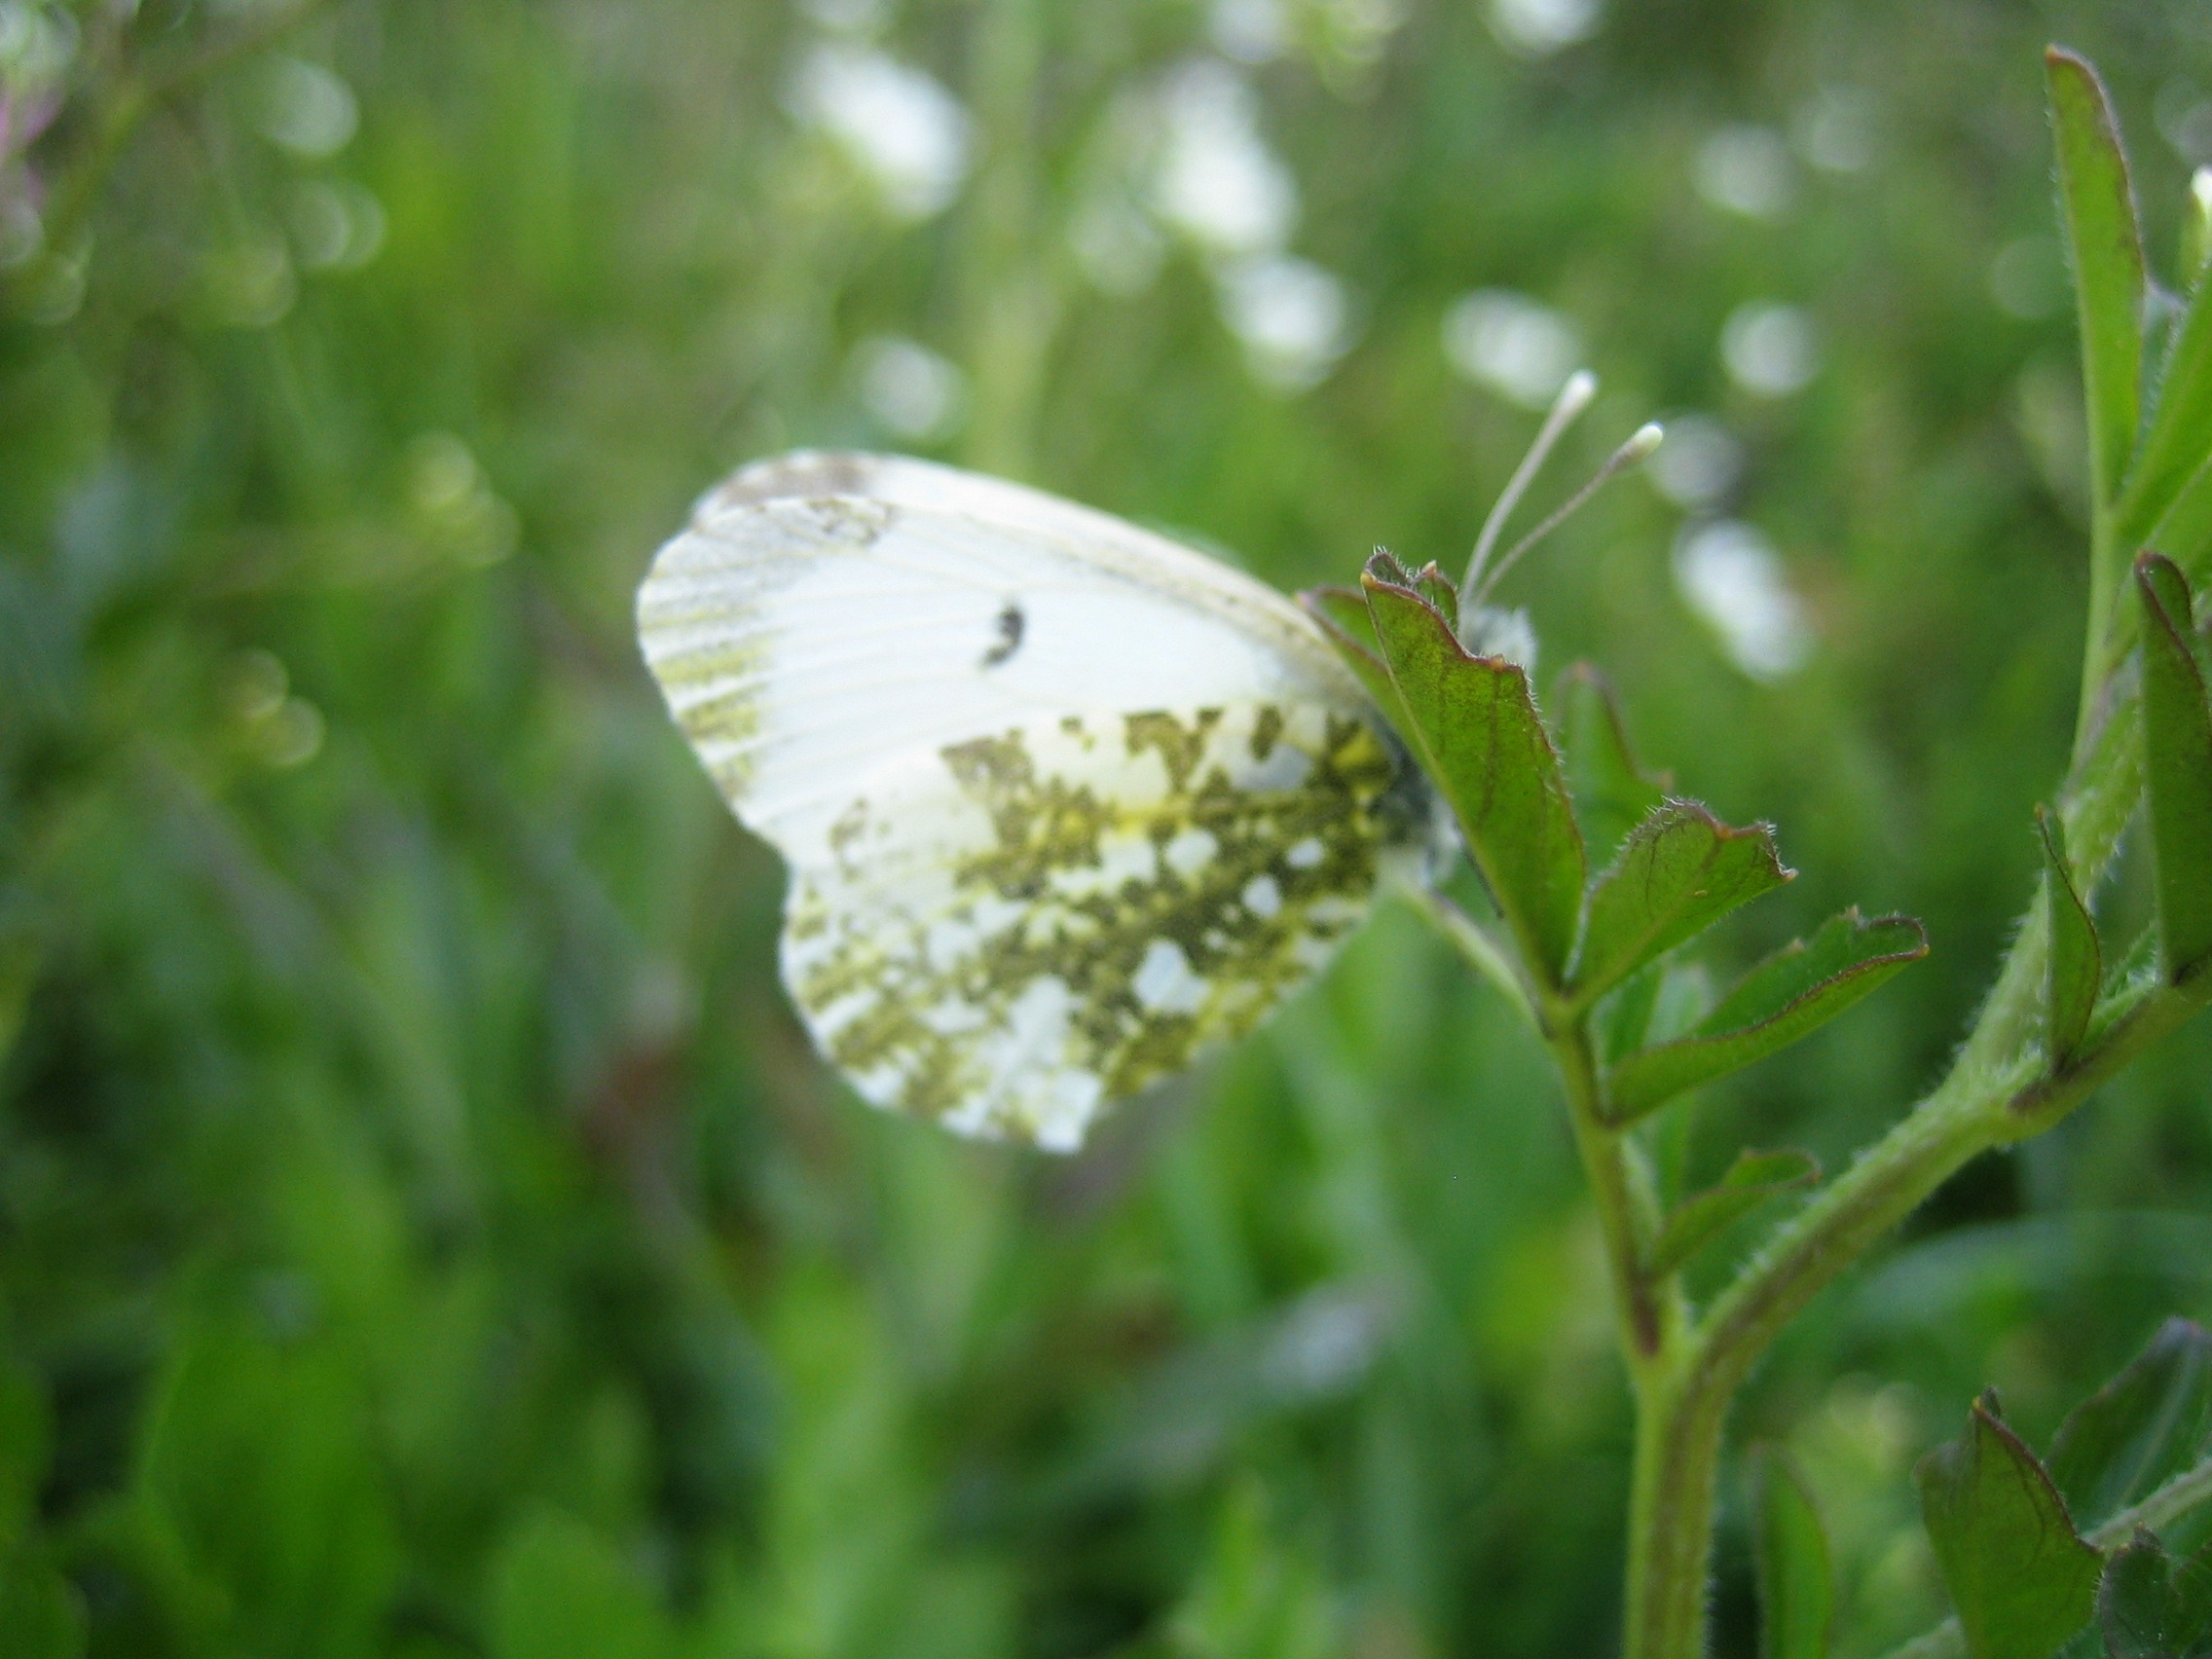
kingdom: Animalia
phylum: Arthropoda
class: Insecta
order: Lepidoptera
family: Pieridae
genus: Anthocharis
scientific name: Anthocharis cardamines
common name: Aurora
